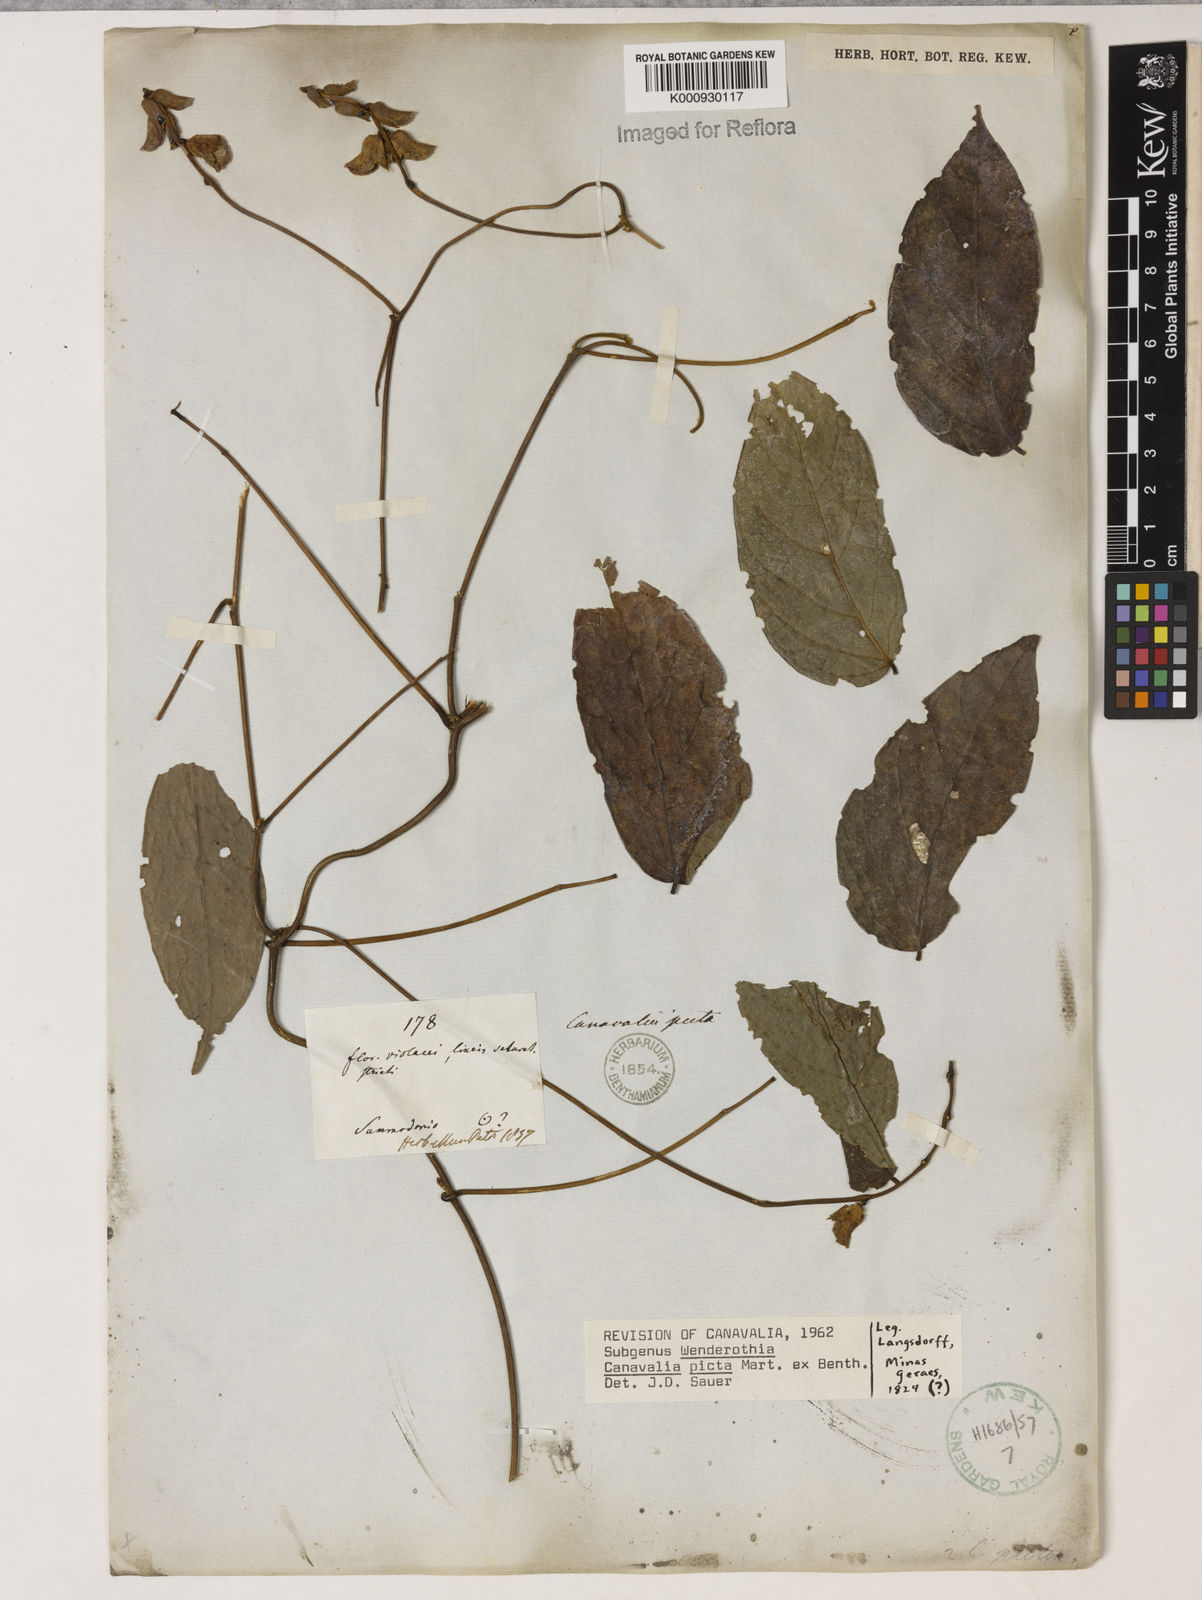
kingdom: Plantae
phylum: Tracheophyta
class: Magnoliopsida
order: Fabales
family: Fabaceae
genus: Canavalia
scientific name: Canavalia picta
